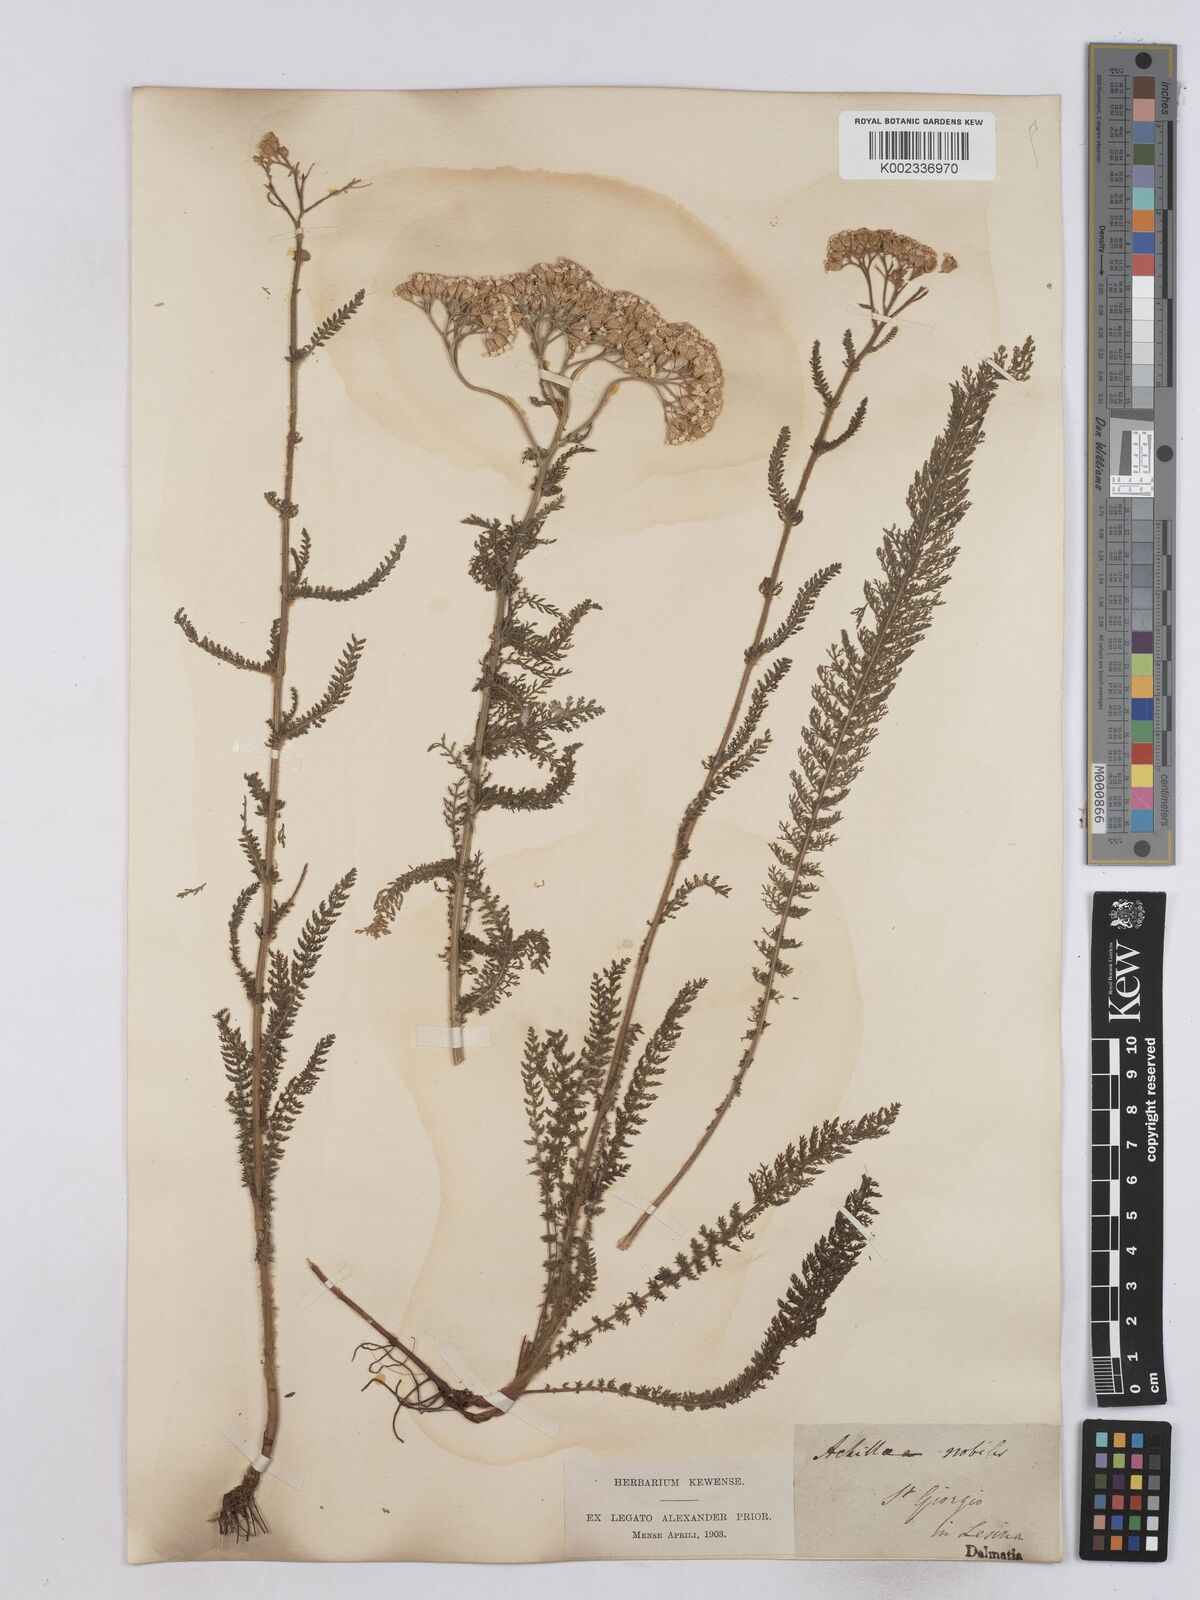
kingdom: Plantae
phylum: Tracheophyta
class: Magnoliopsida
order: Asterales
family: Asteraceae
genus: Achillea
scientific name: Achillea nobilis
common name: Noble yarrow
